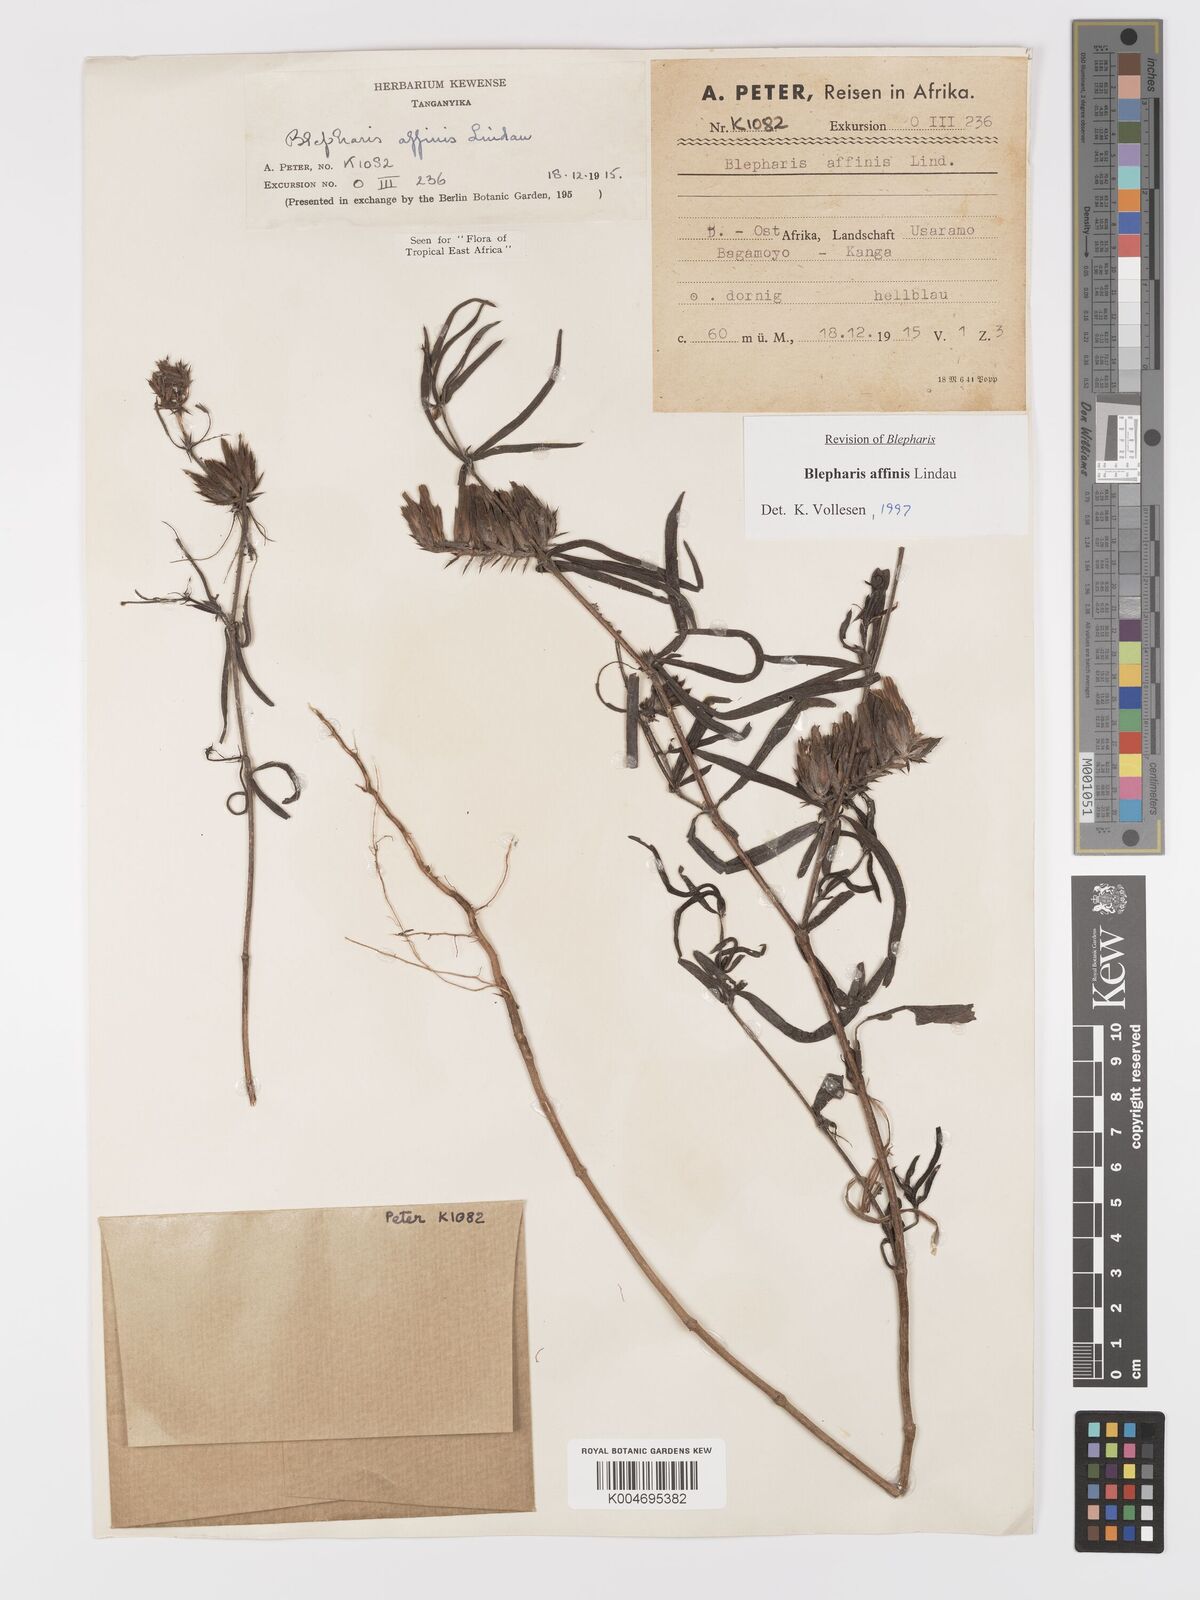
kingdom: Plantae
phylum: Tracheophyta
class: Magnoliopsida
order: Lamiales
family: Acanthaceae
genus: Blepharis
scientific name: Blepharis affinis
